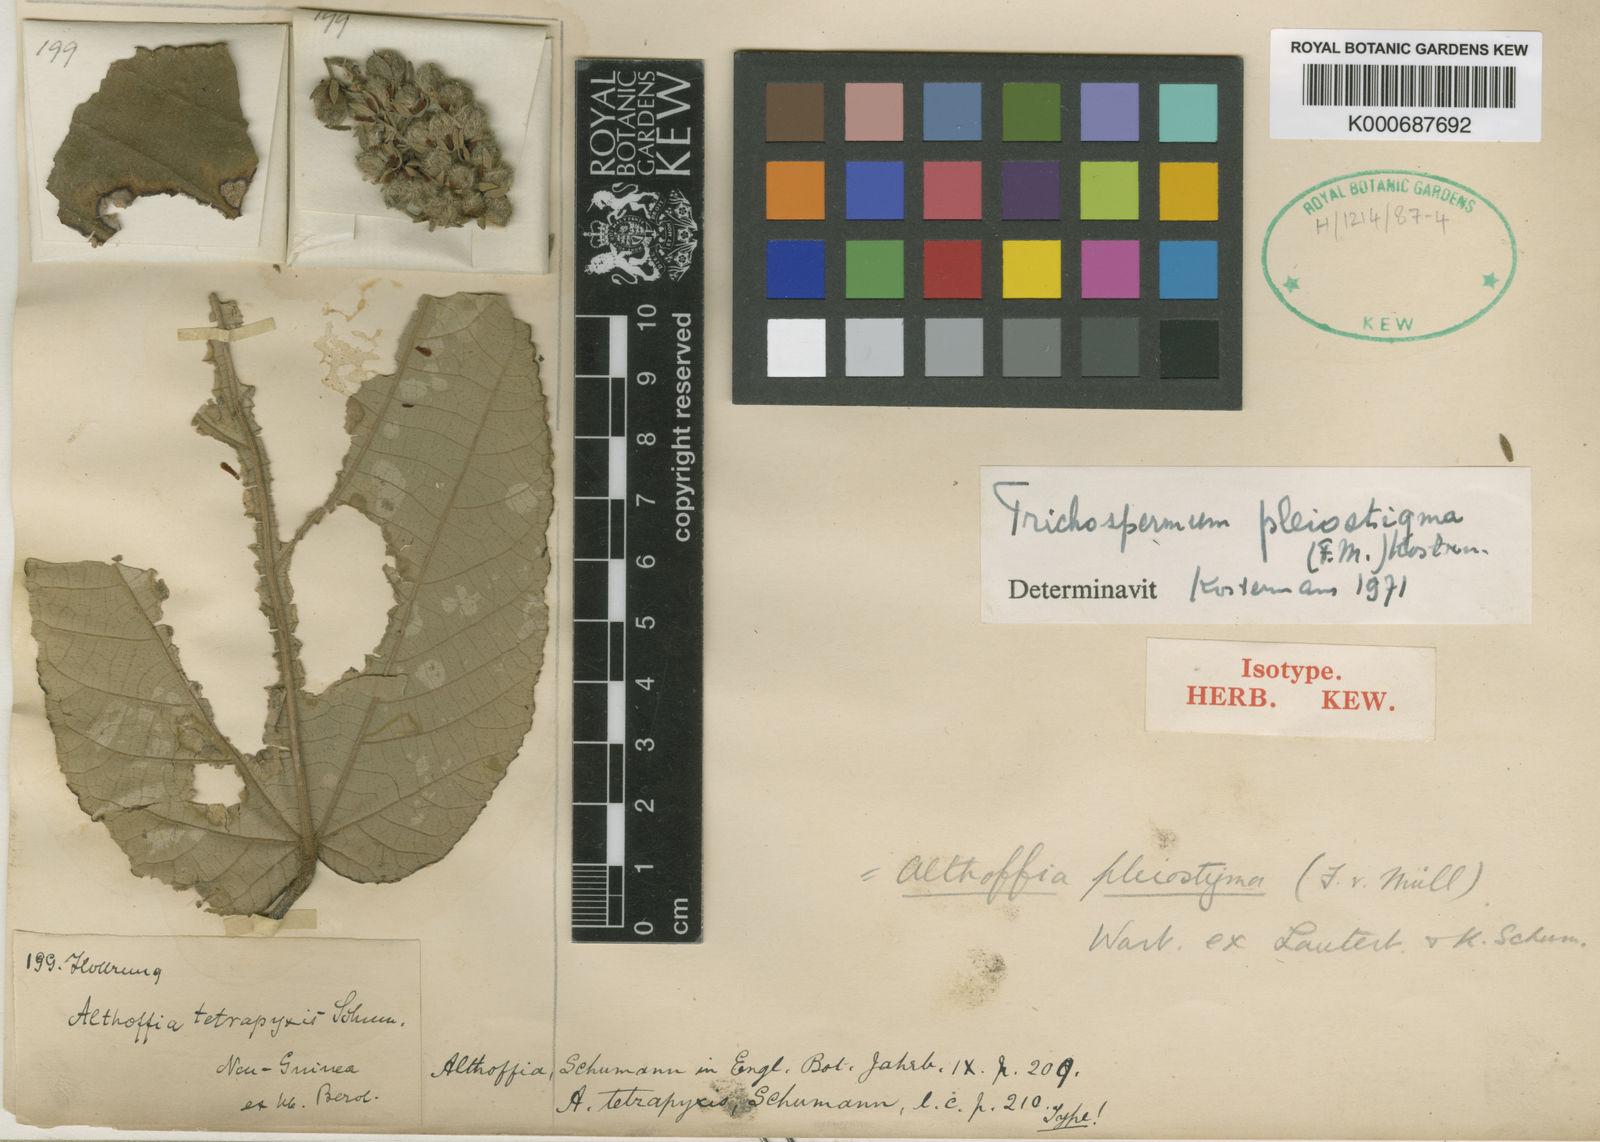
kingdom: Plantae
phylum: Tracheophyta
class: Magnoliopsida
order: Malvales
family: Malvaceae
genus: Trichospermum
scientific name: Trichospermum pleiostigma
